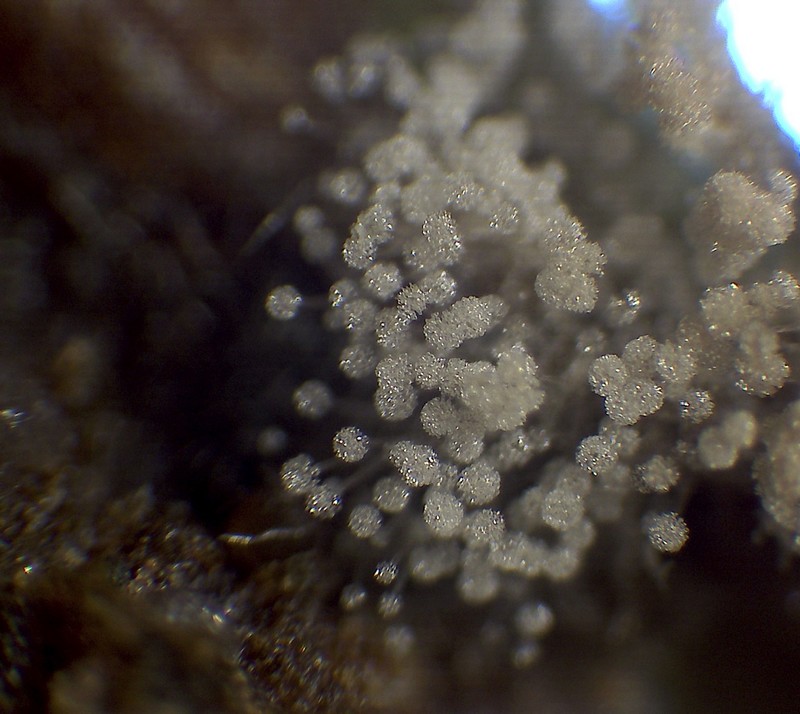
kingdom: Fungi
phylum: Ascomycota
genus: Nematogonum
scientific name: Nematogonum ferrugineum
